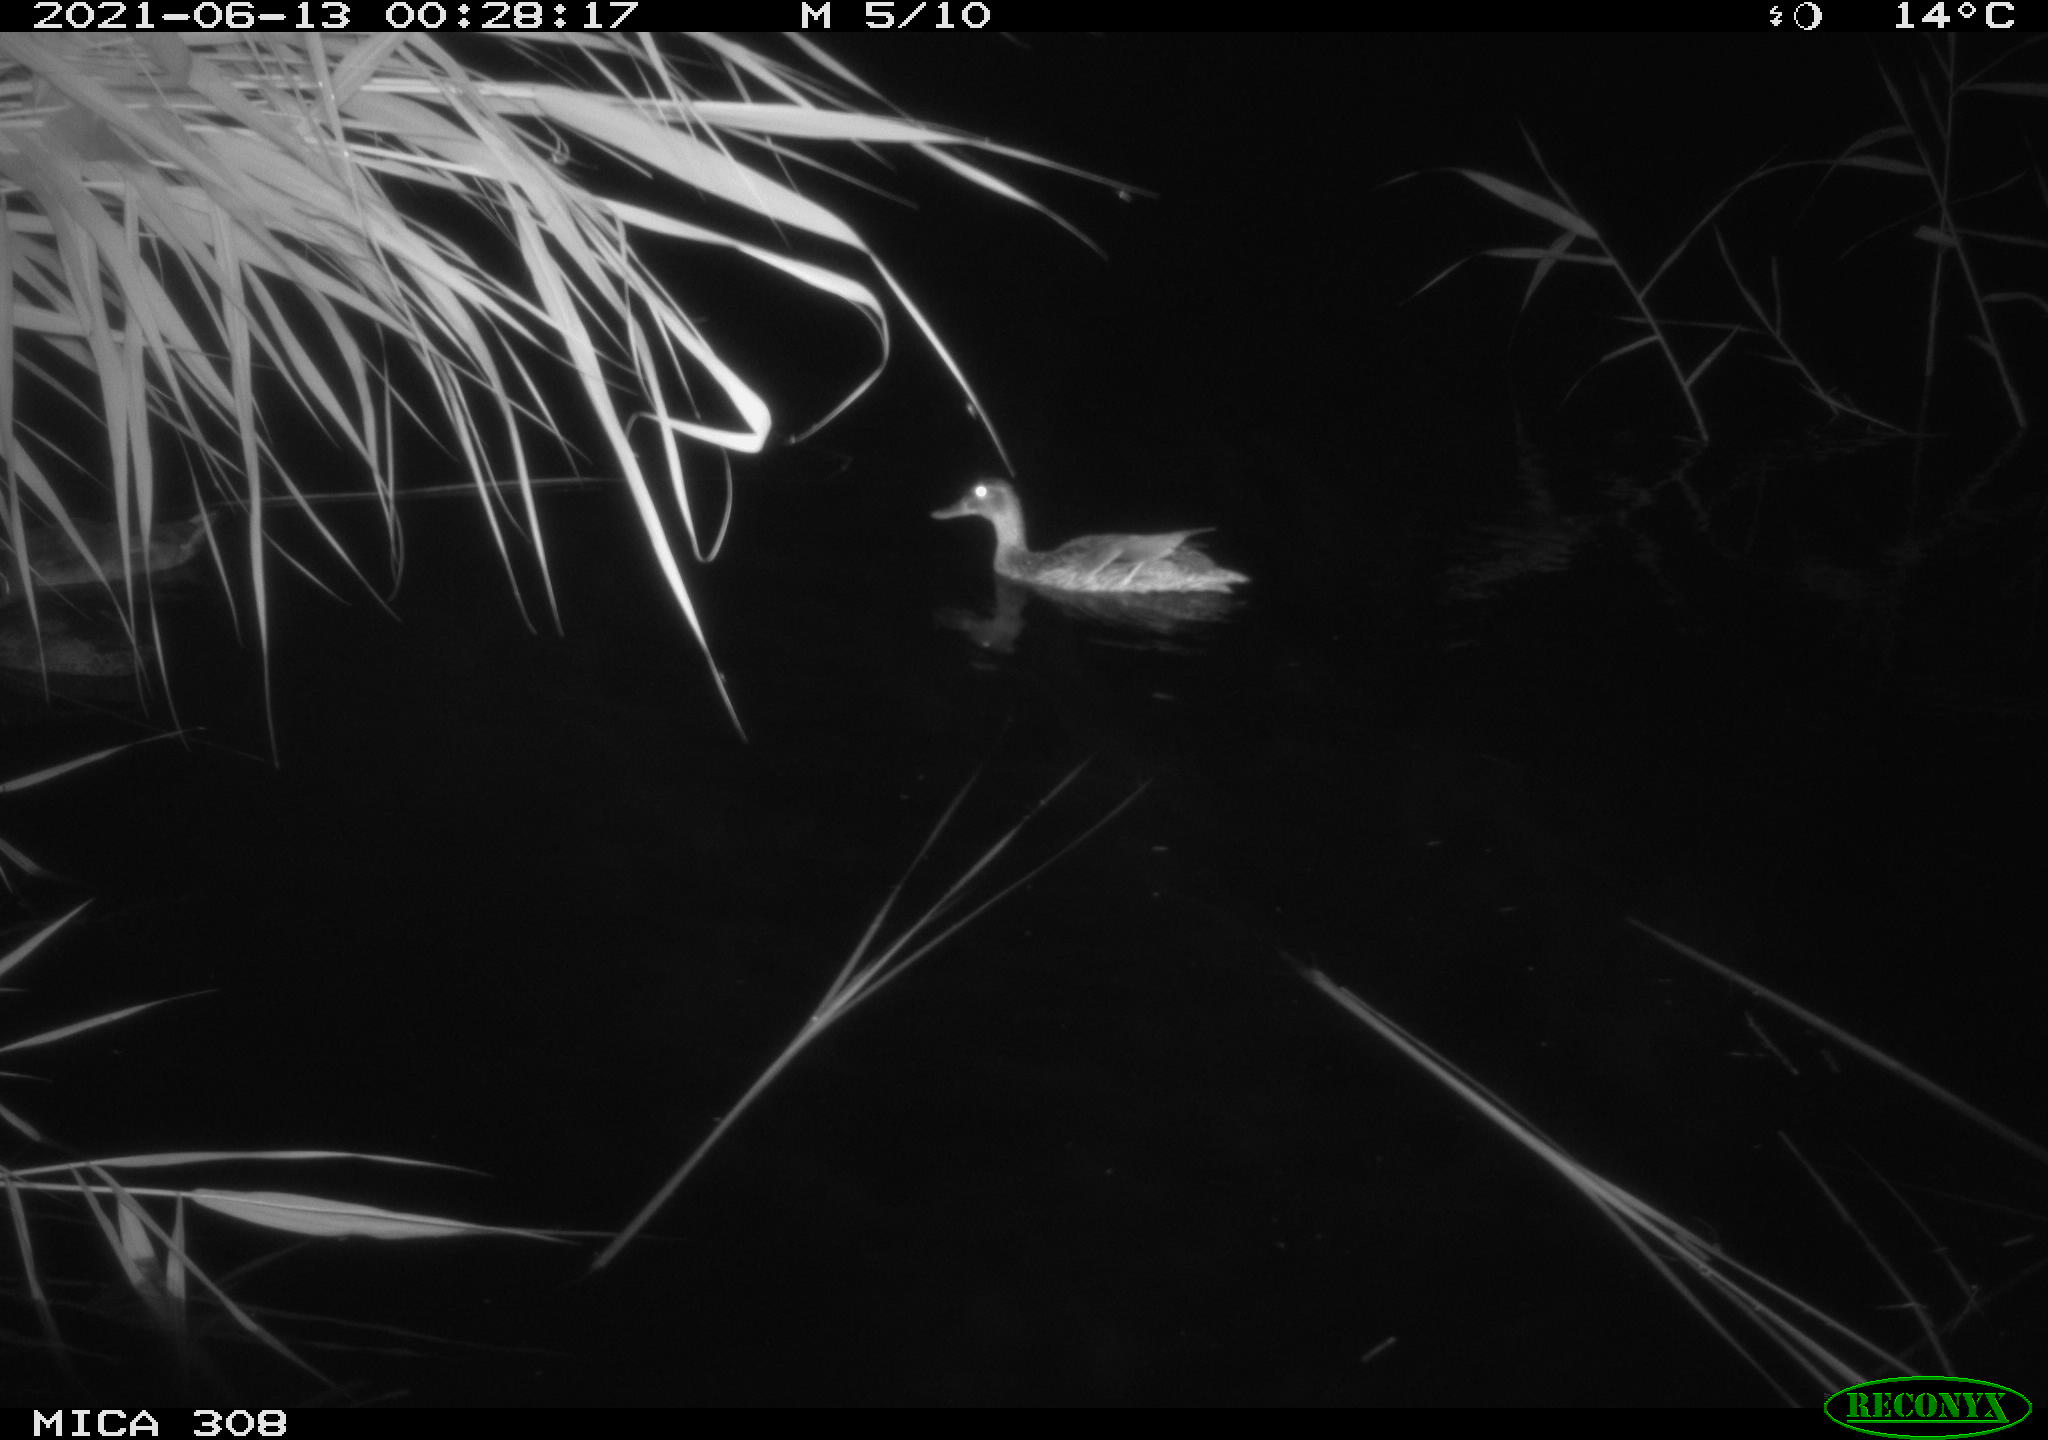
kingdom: Animalia
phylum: Chordata
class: Aves
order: Anseriformes
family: Anatidae
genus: Anas
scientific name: Anas platyrhynchos
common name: Mallard
